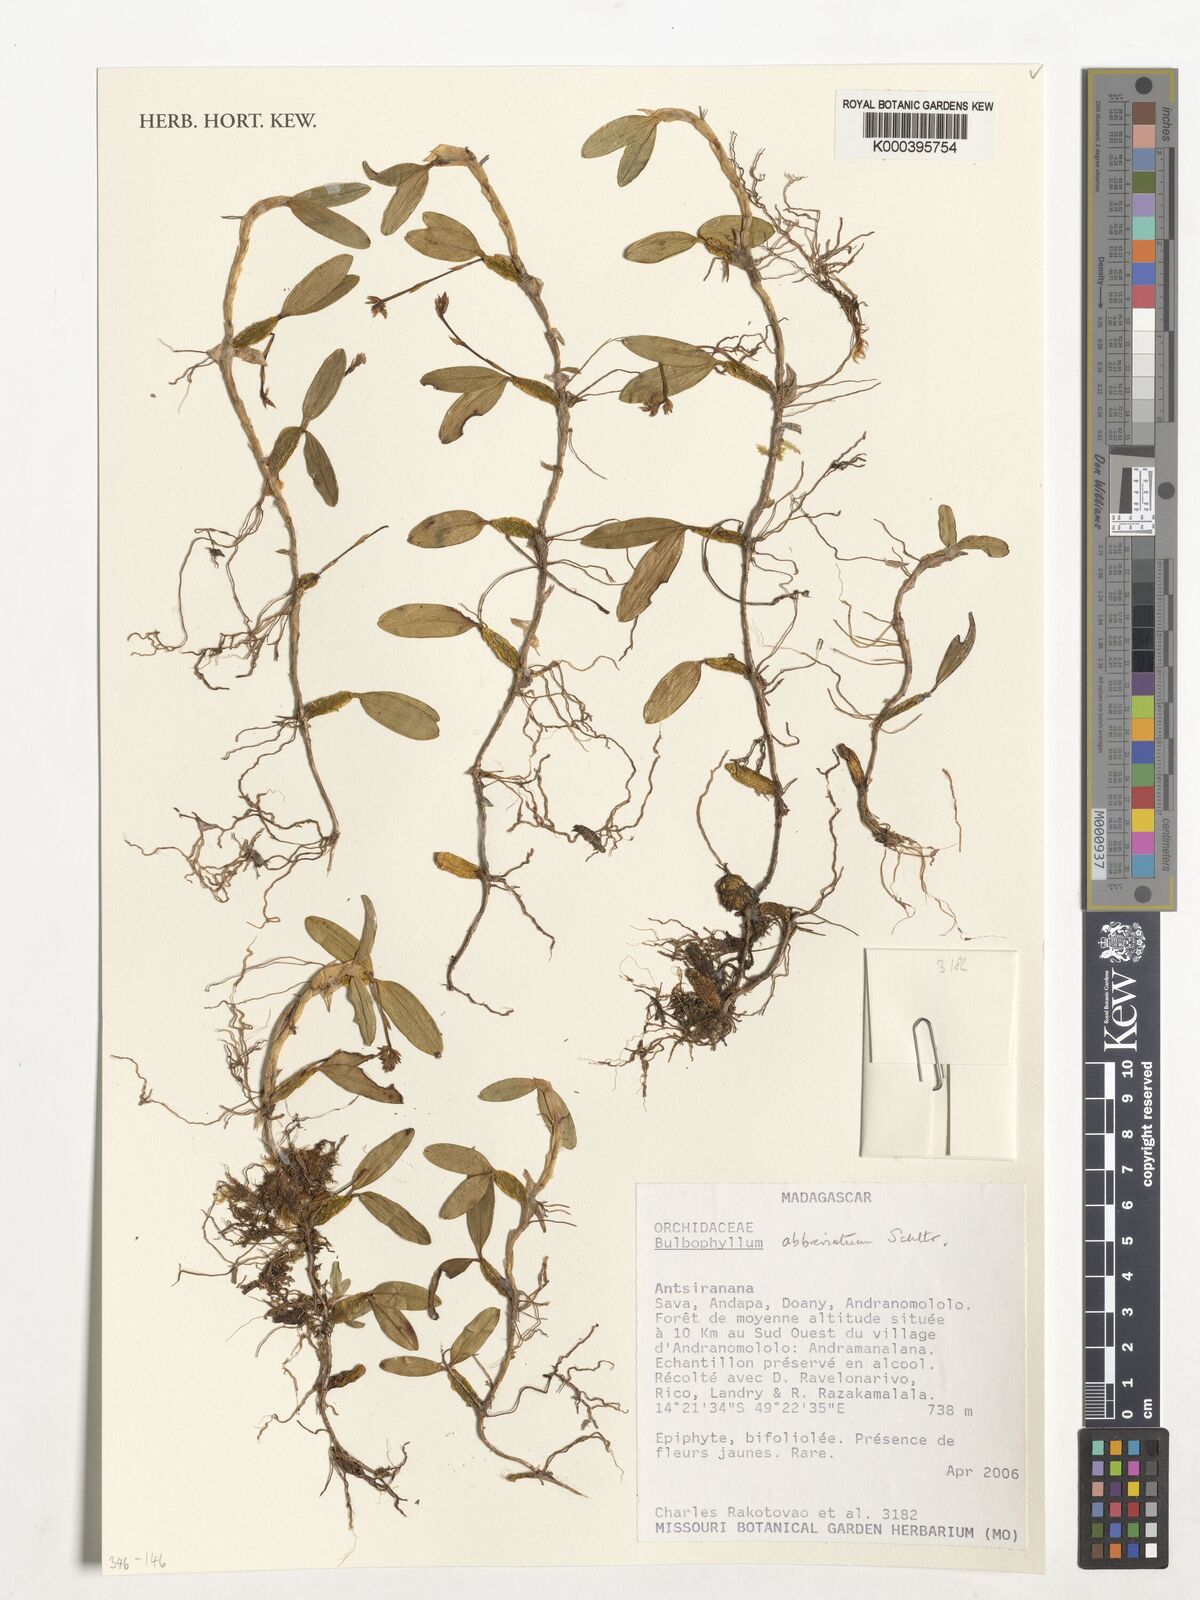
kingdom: Plantae
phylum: Tracheophyta
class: Liliopsida
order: Asparagales
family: Orchidaceae
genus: Bulbophyllum
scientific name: Bulbophyllum abbreviatum
